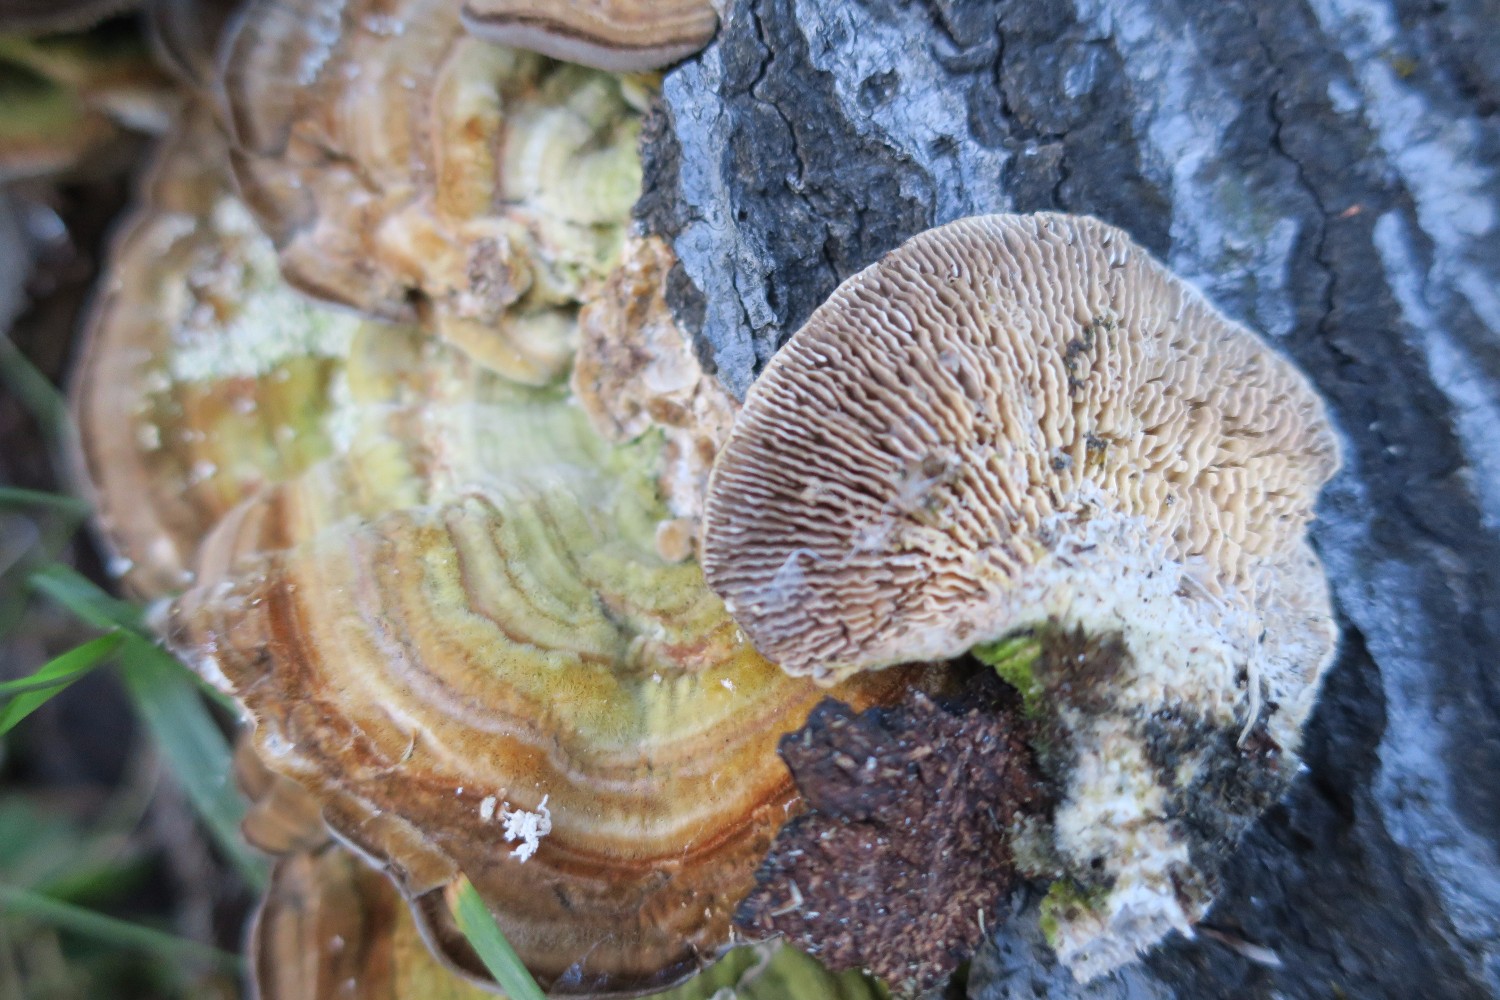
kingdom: Fungi
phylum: Basidiomycota
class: Agaricomycetes
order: Polyporales
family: Polyporaceae
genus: Lenzites
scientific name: Lenzites betulinus
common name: birke-læderporesvamp
